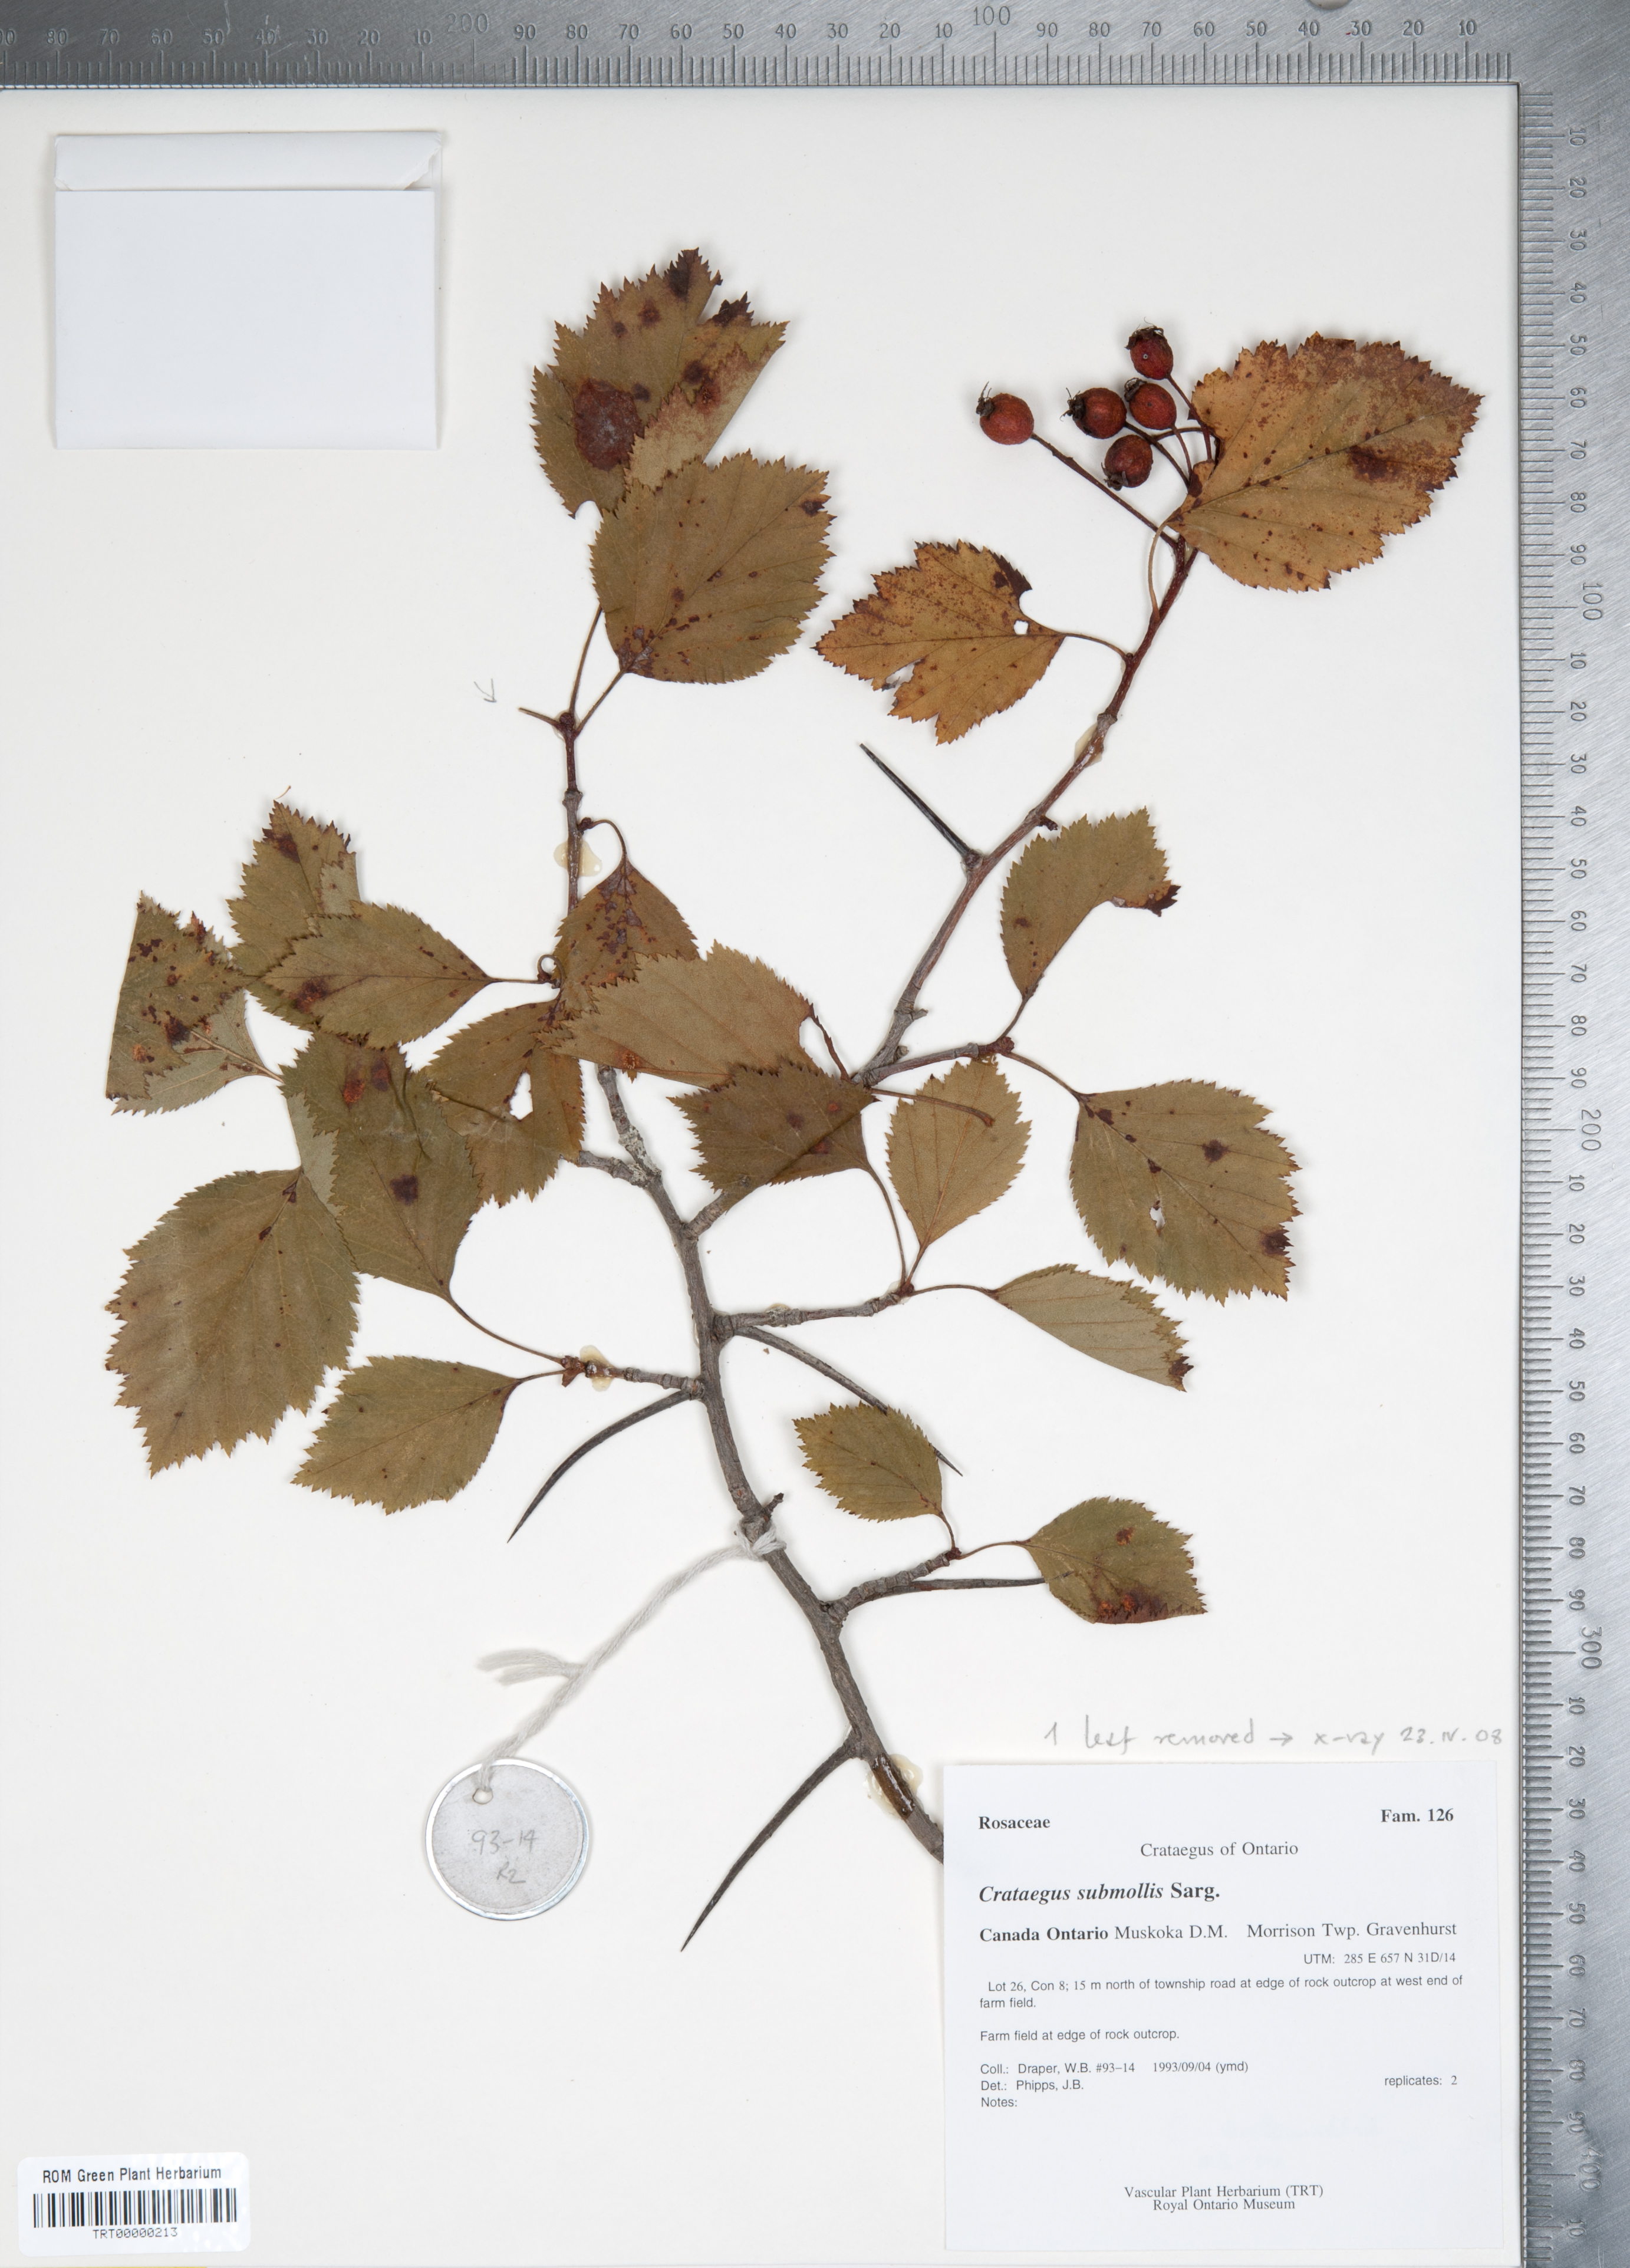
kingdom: Plantae
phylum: Tracheophyta
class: Magnoliopsida
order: Rosales
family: Rosaceae
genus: Crataegus
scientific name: Crataegus submollis
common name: Hairy cockspurthorn
